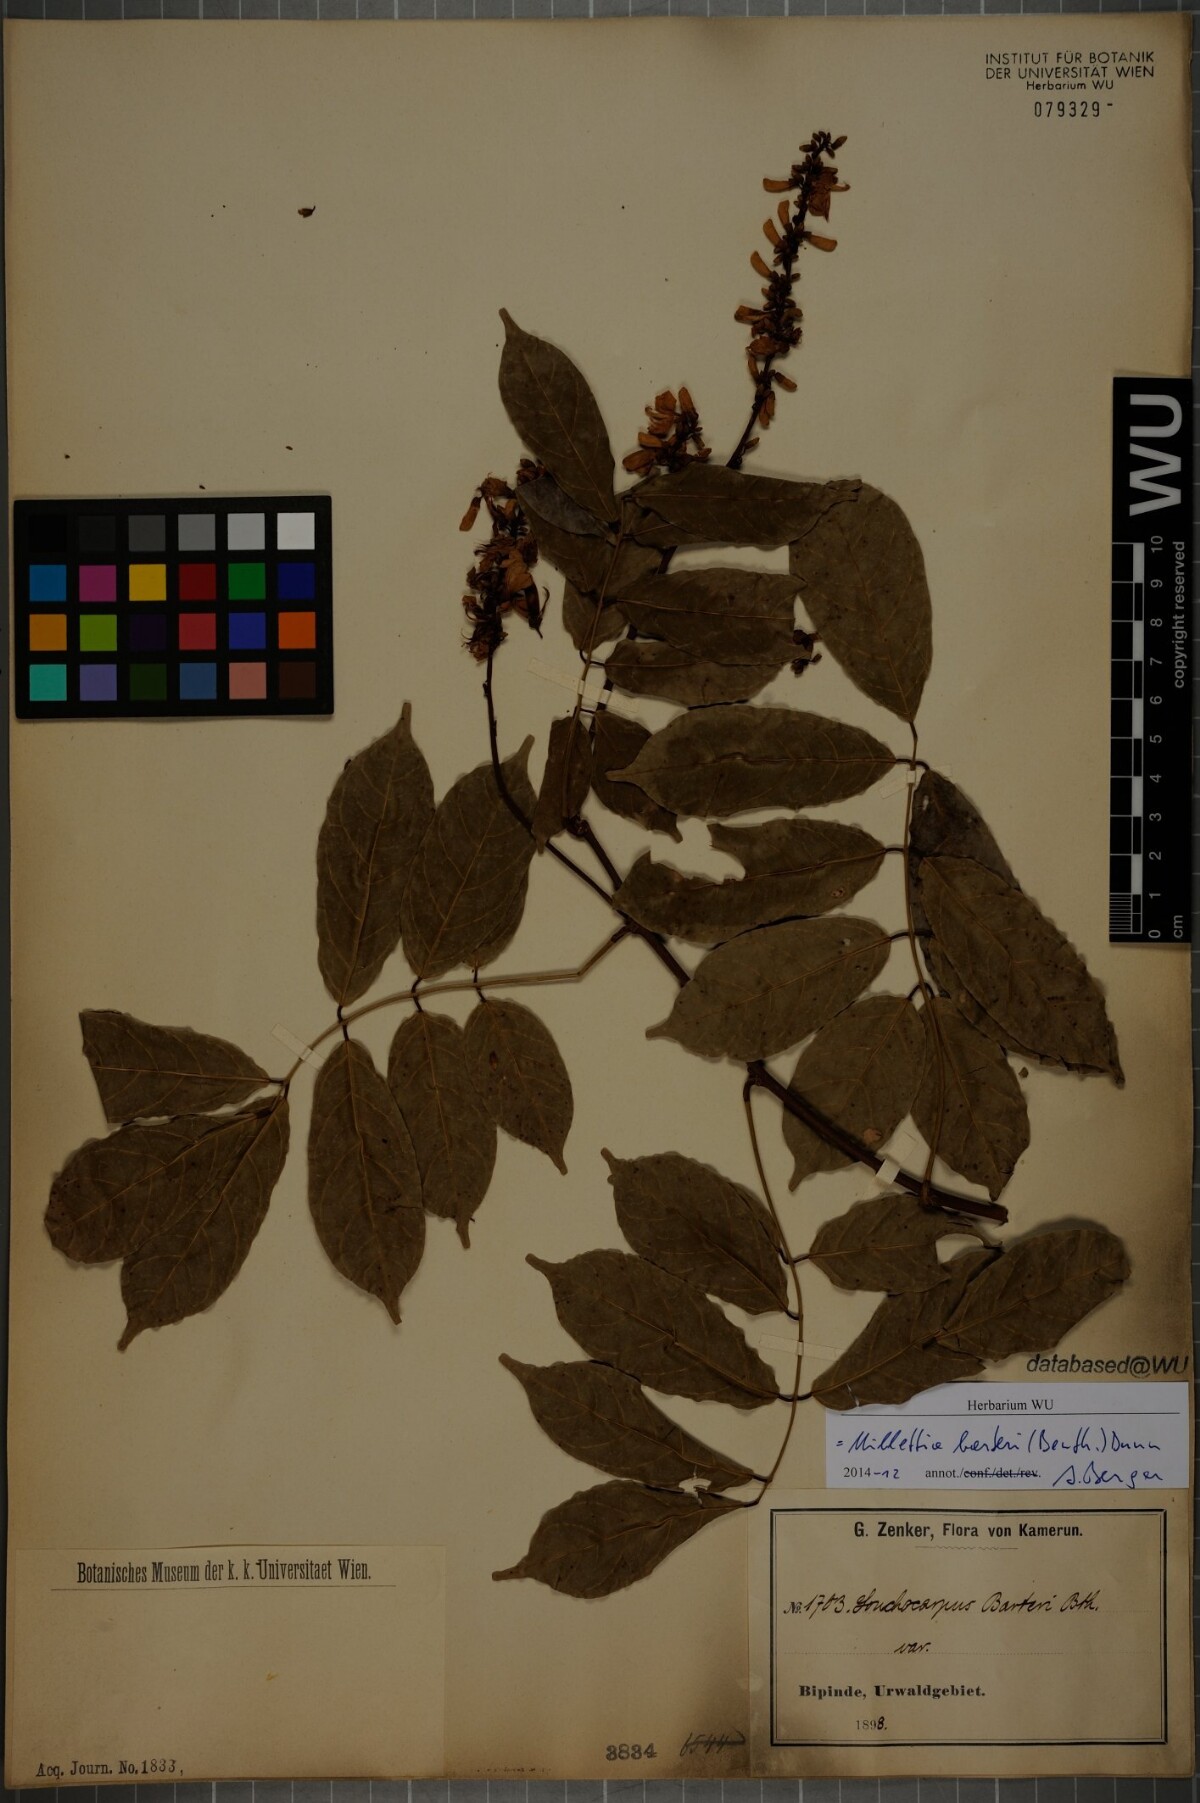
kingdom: Plantae
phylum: Tracheophyta
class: Magnoliopsida
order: Fabales
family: Fabaceae
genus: Millettia
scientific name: Millettia barteri
